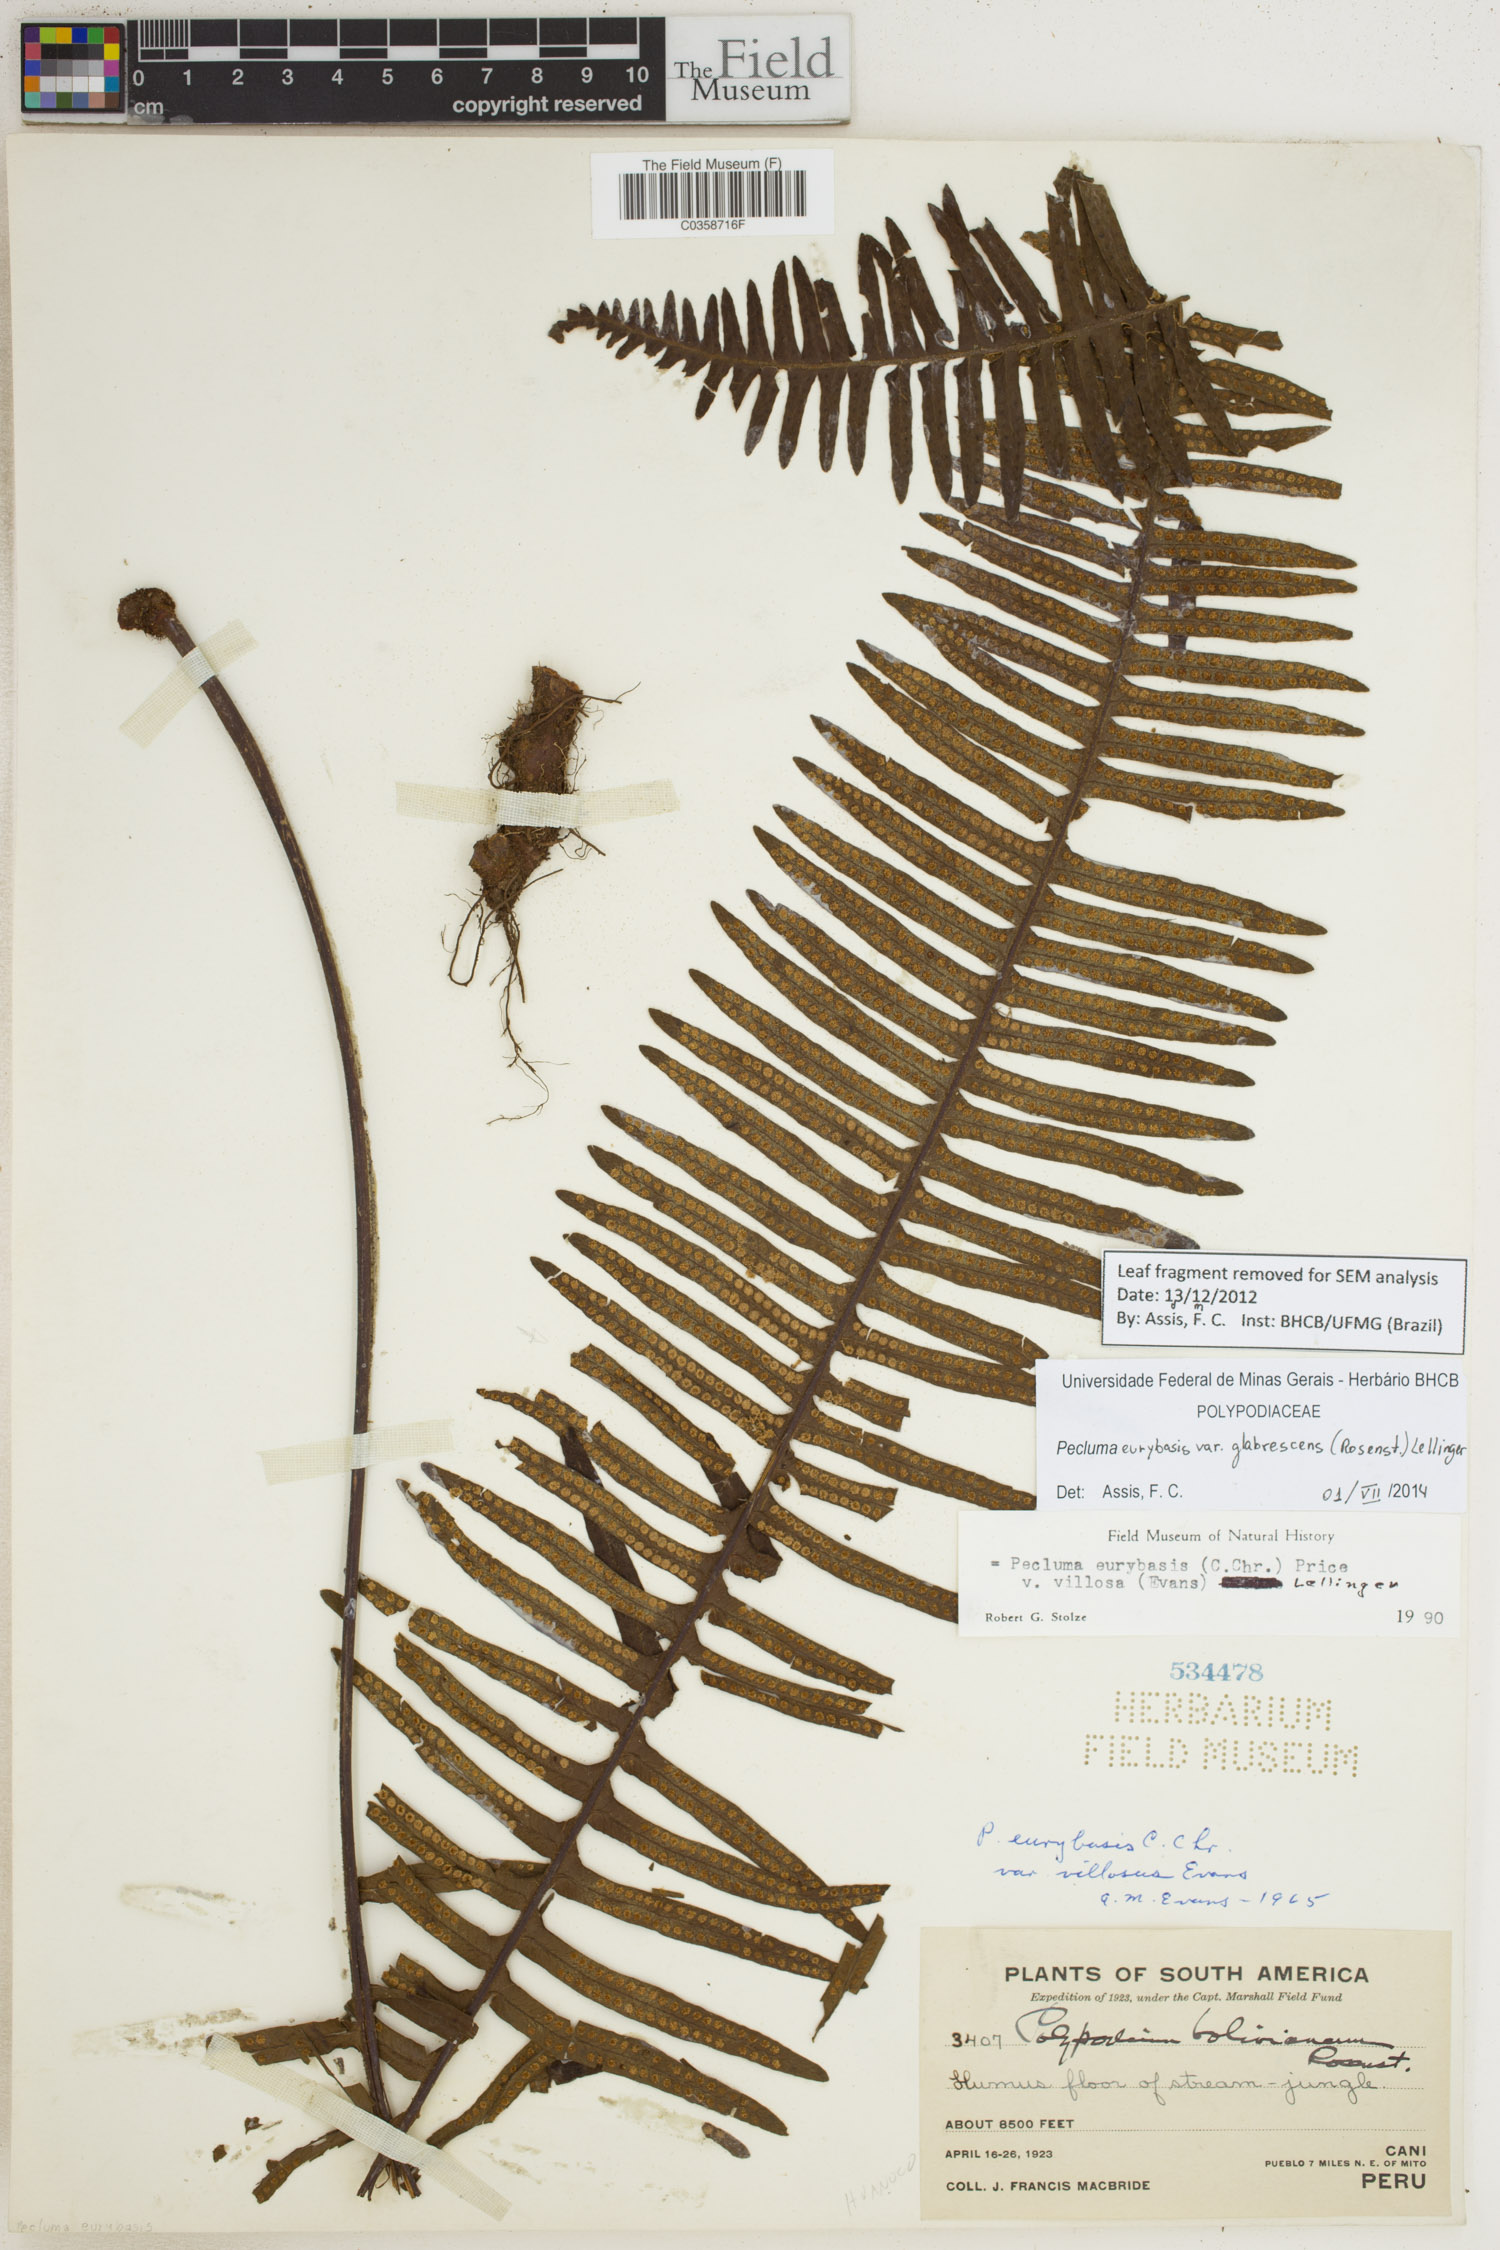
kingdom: Plantae
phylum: Tracheophyta
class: Polypodiopsida
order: Polypodiales
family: Polypodiaceae
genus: Pecluma
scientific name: Pecluma eurybasis
